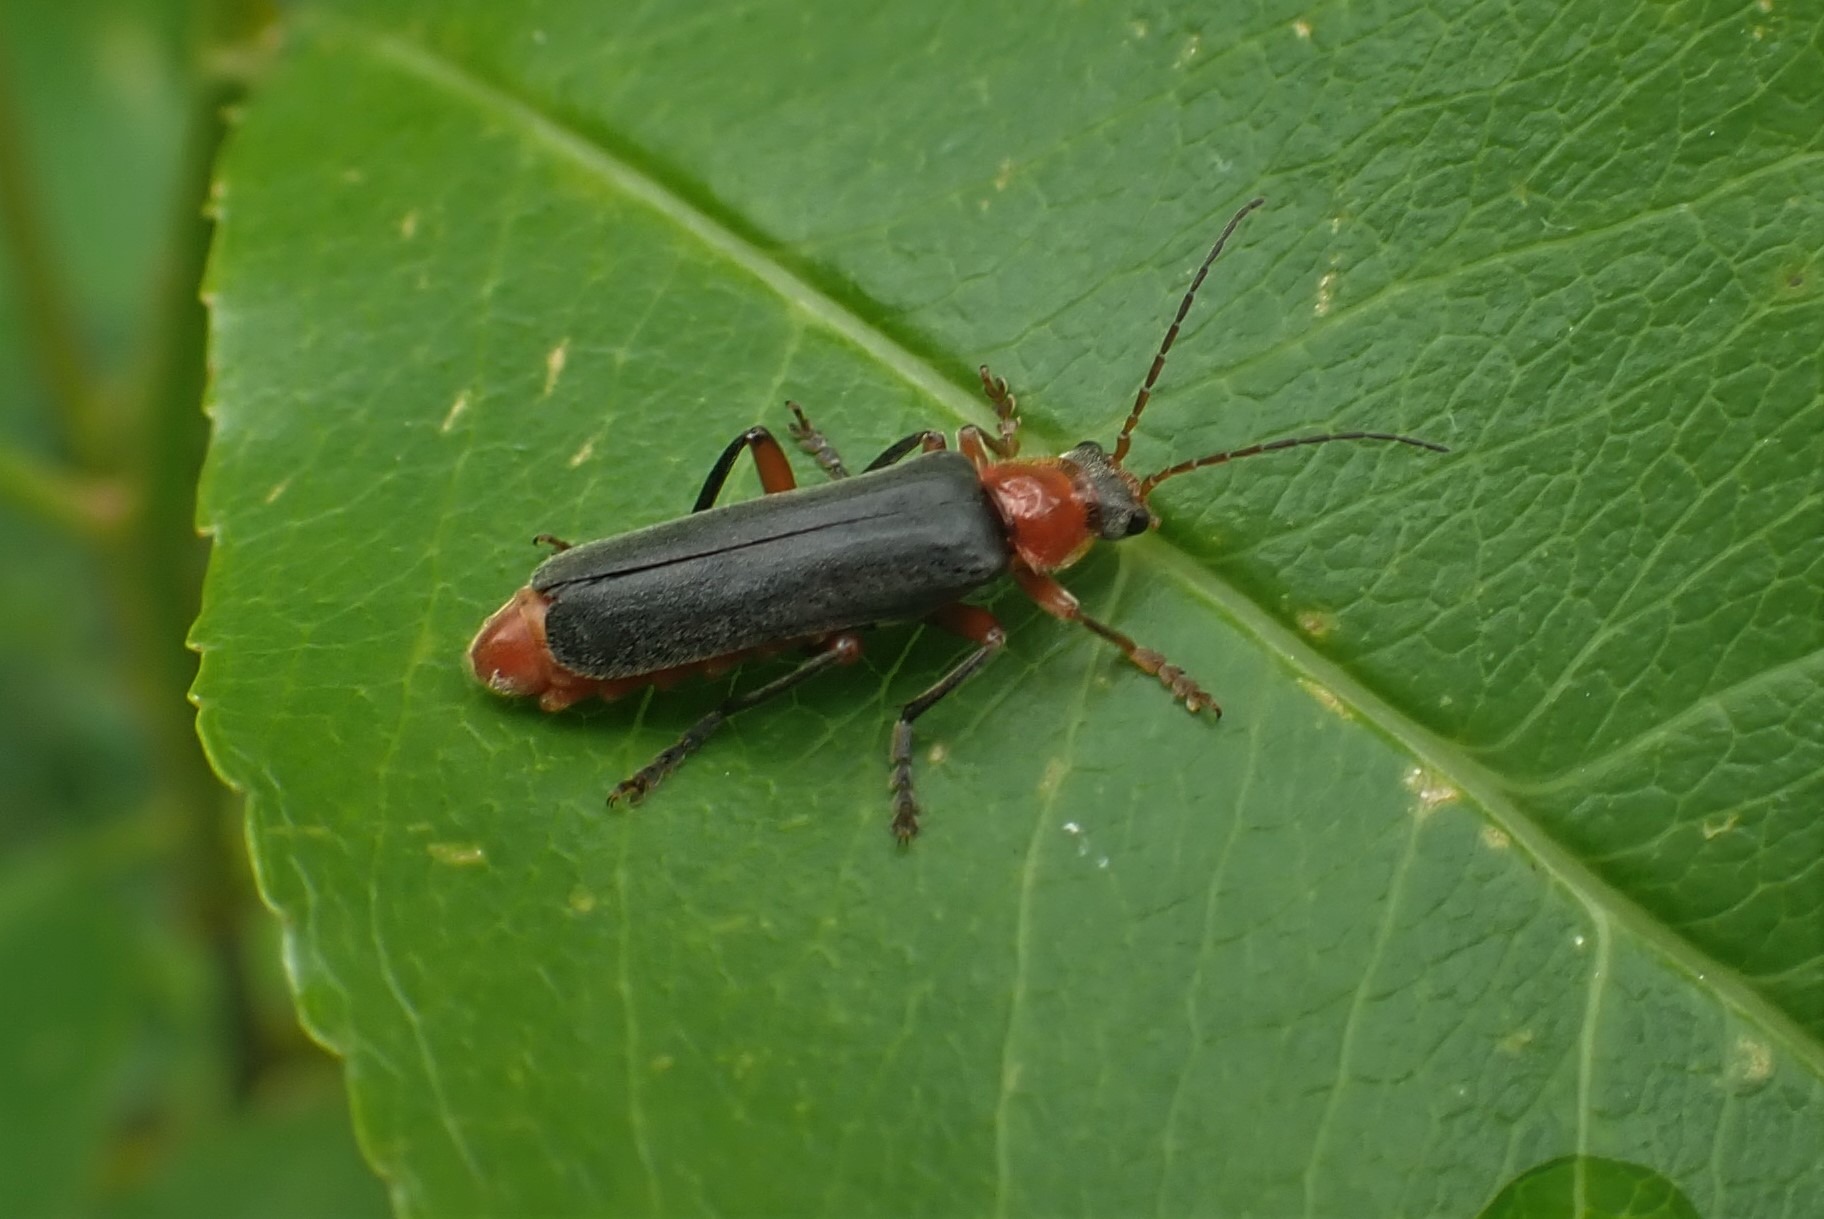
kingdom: Animalia
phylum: Arthropoda
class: Insecta
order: Coleoptera
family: Cantharidae
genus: Cantharis
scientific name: Cantharis pellucida
